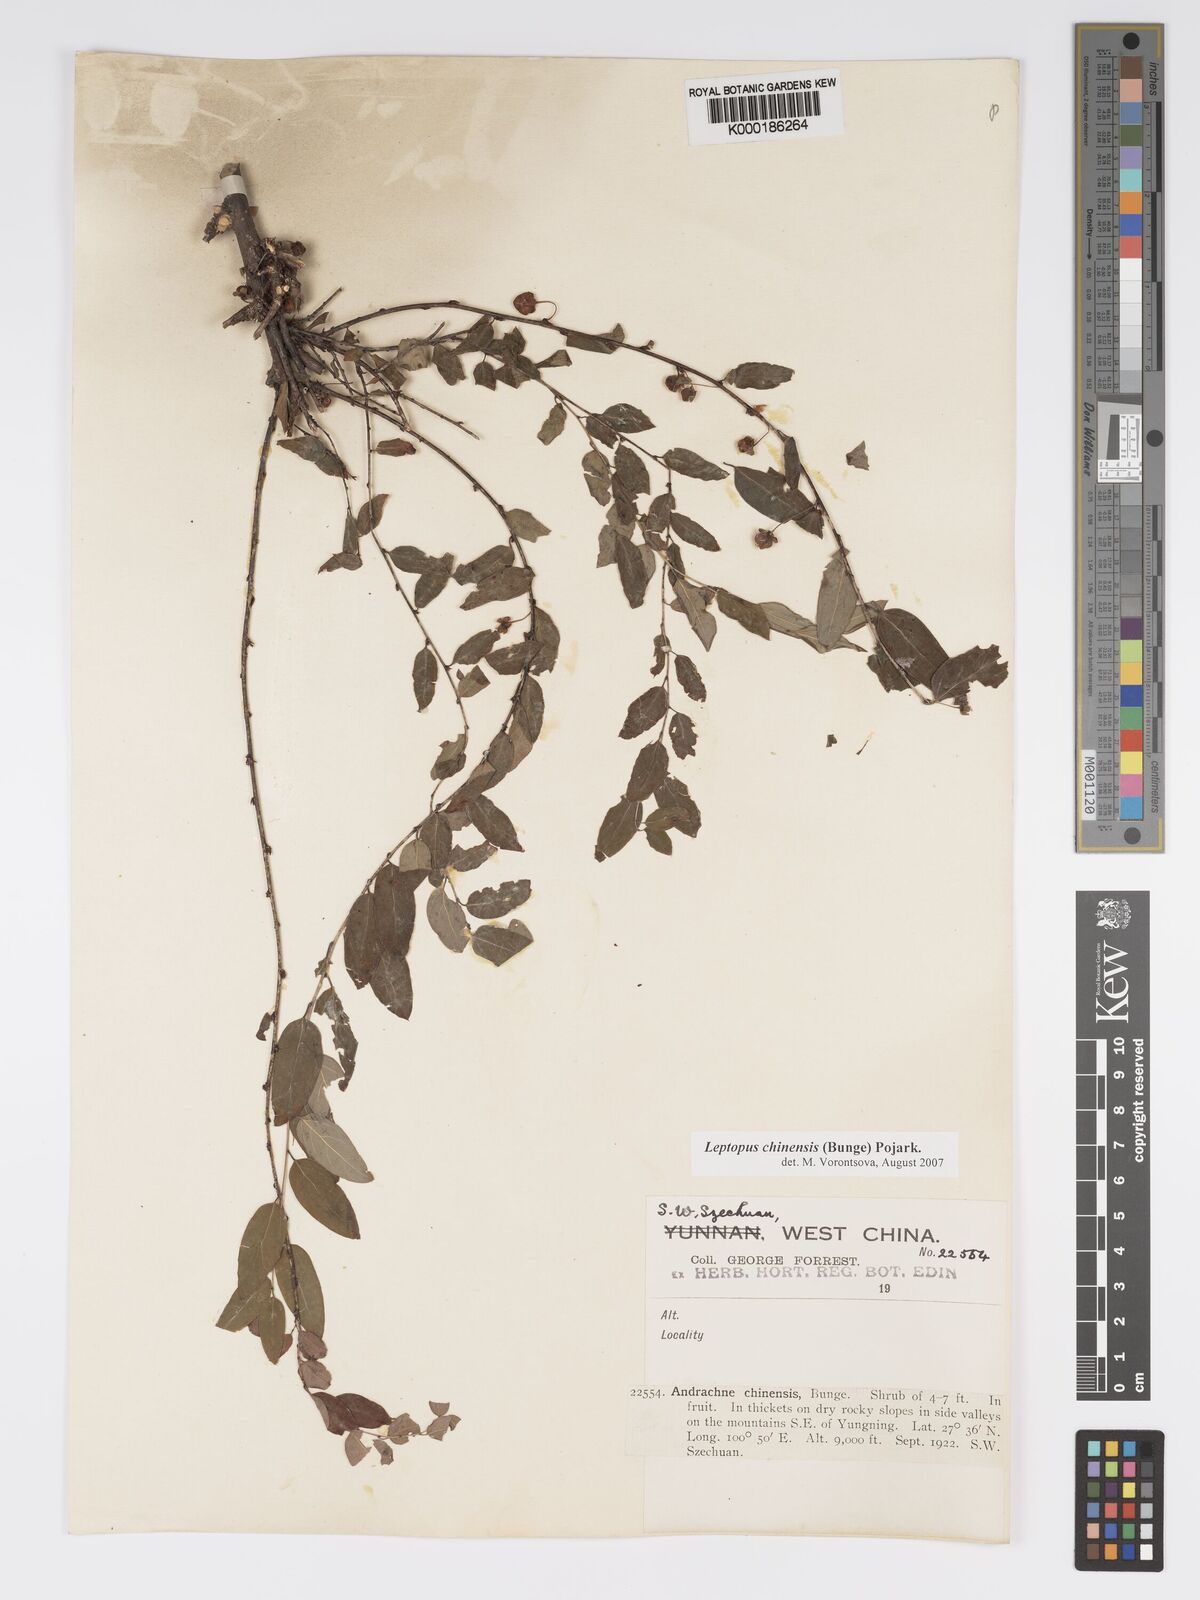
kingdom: Plantae
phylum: Tracheophyta
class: Magnoliopsida
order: Malpighiales
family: Phyllanthaceae
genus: Leptopus
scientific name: Leptopus chinensis
